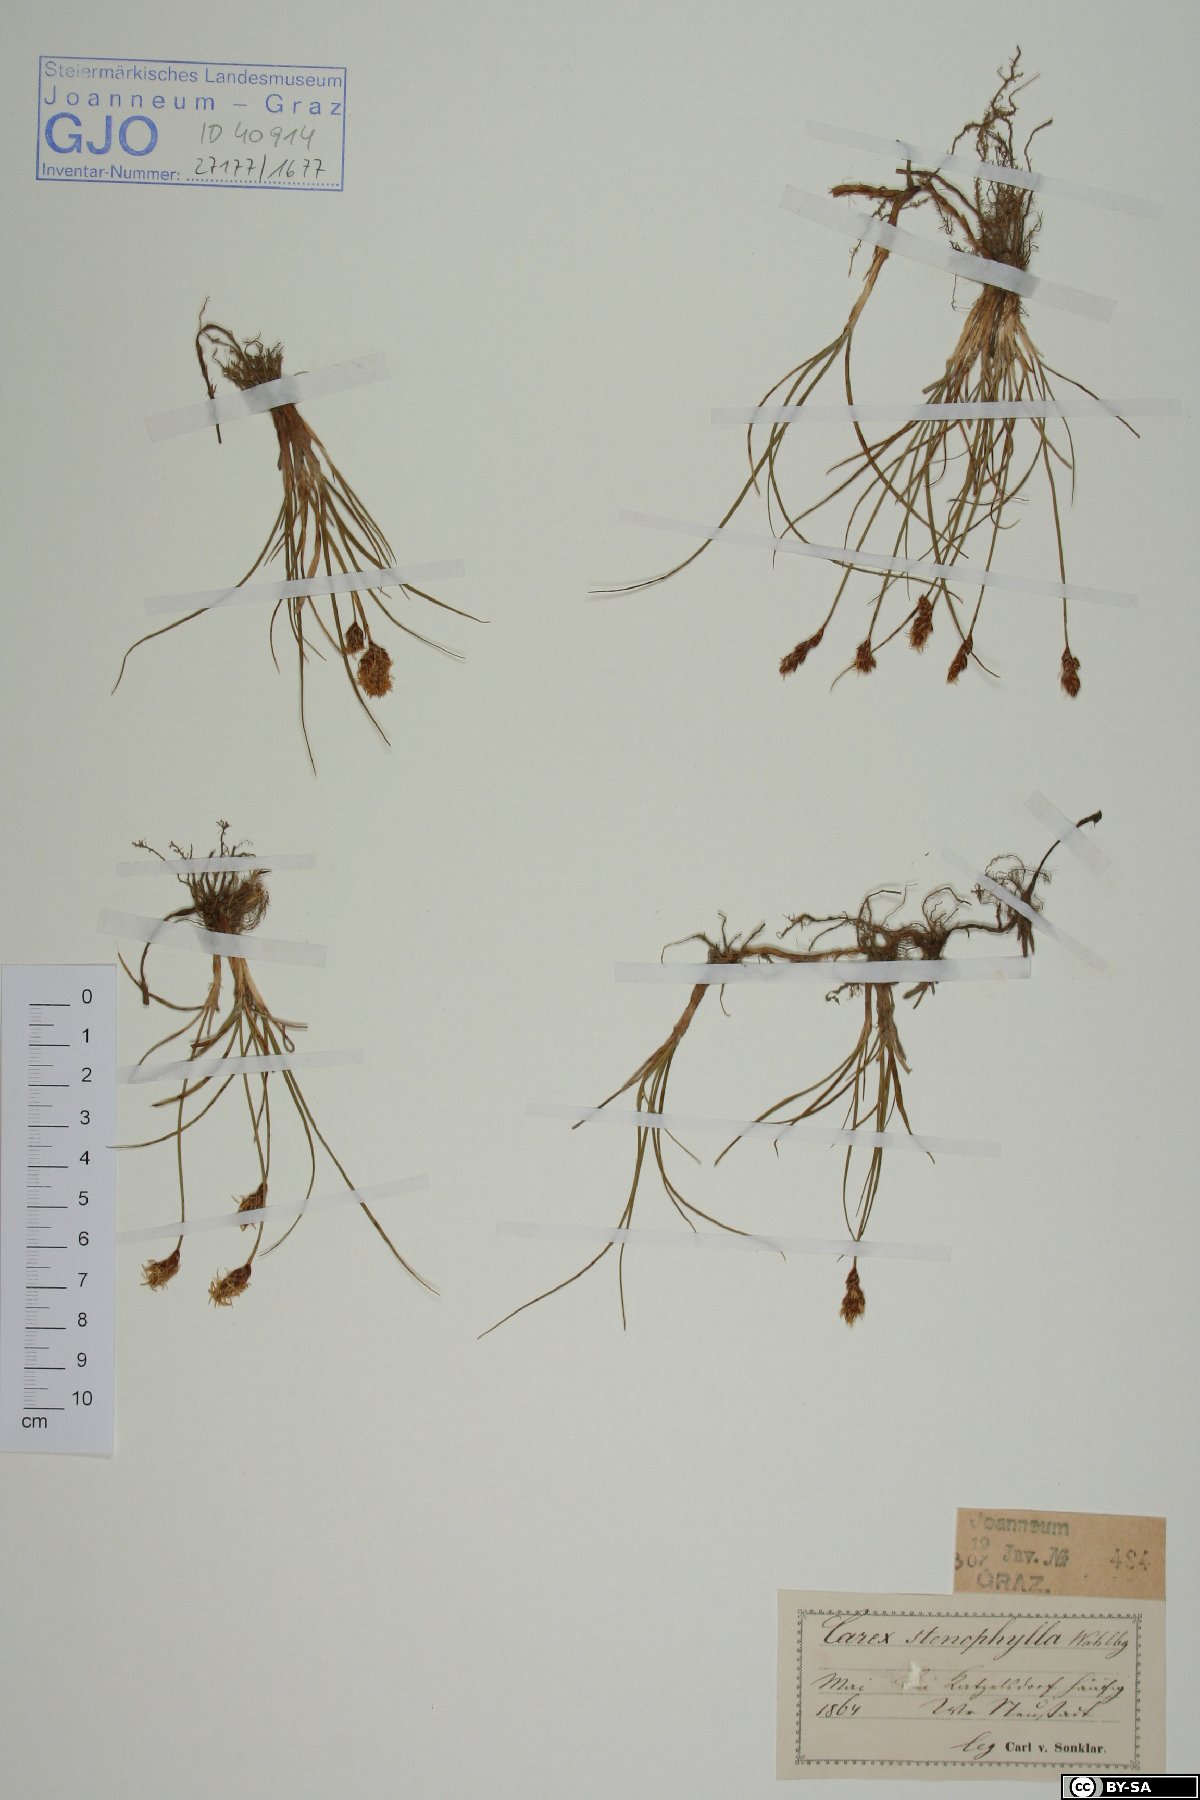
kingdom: Plantae
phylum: Tracheophyta
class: Liliopsida
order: Poales
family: Cyperaceae
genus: Carex
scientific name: Carex stenophylla
